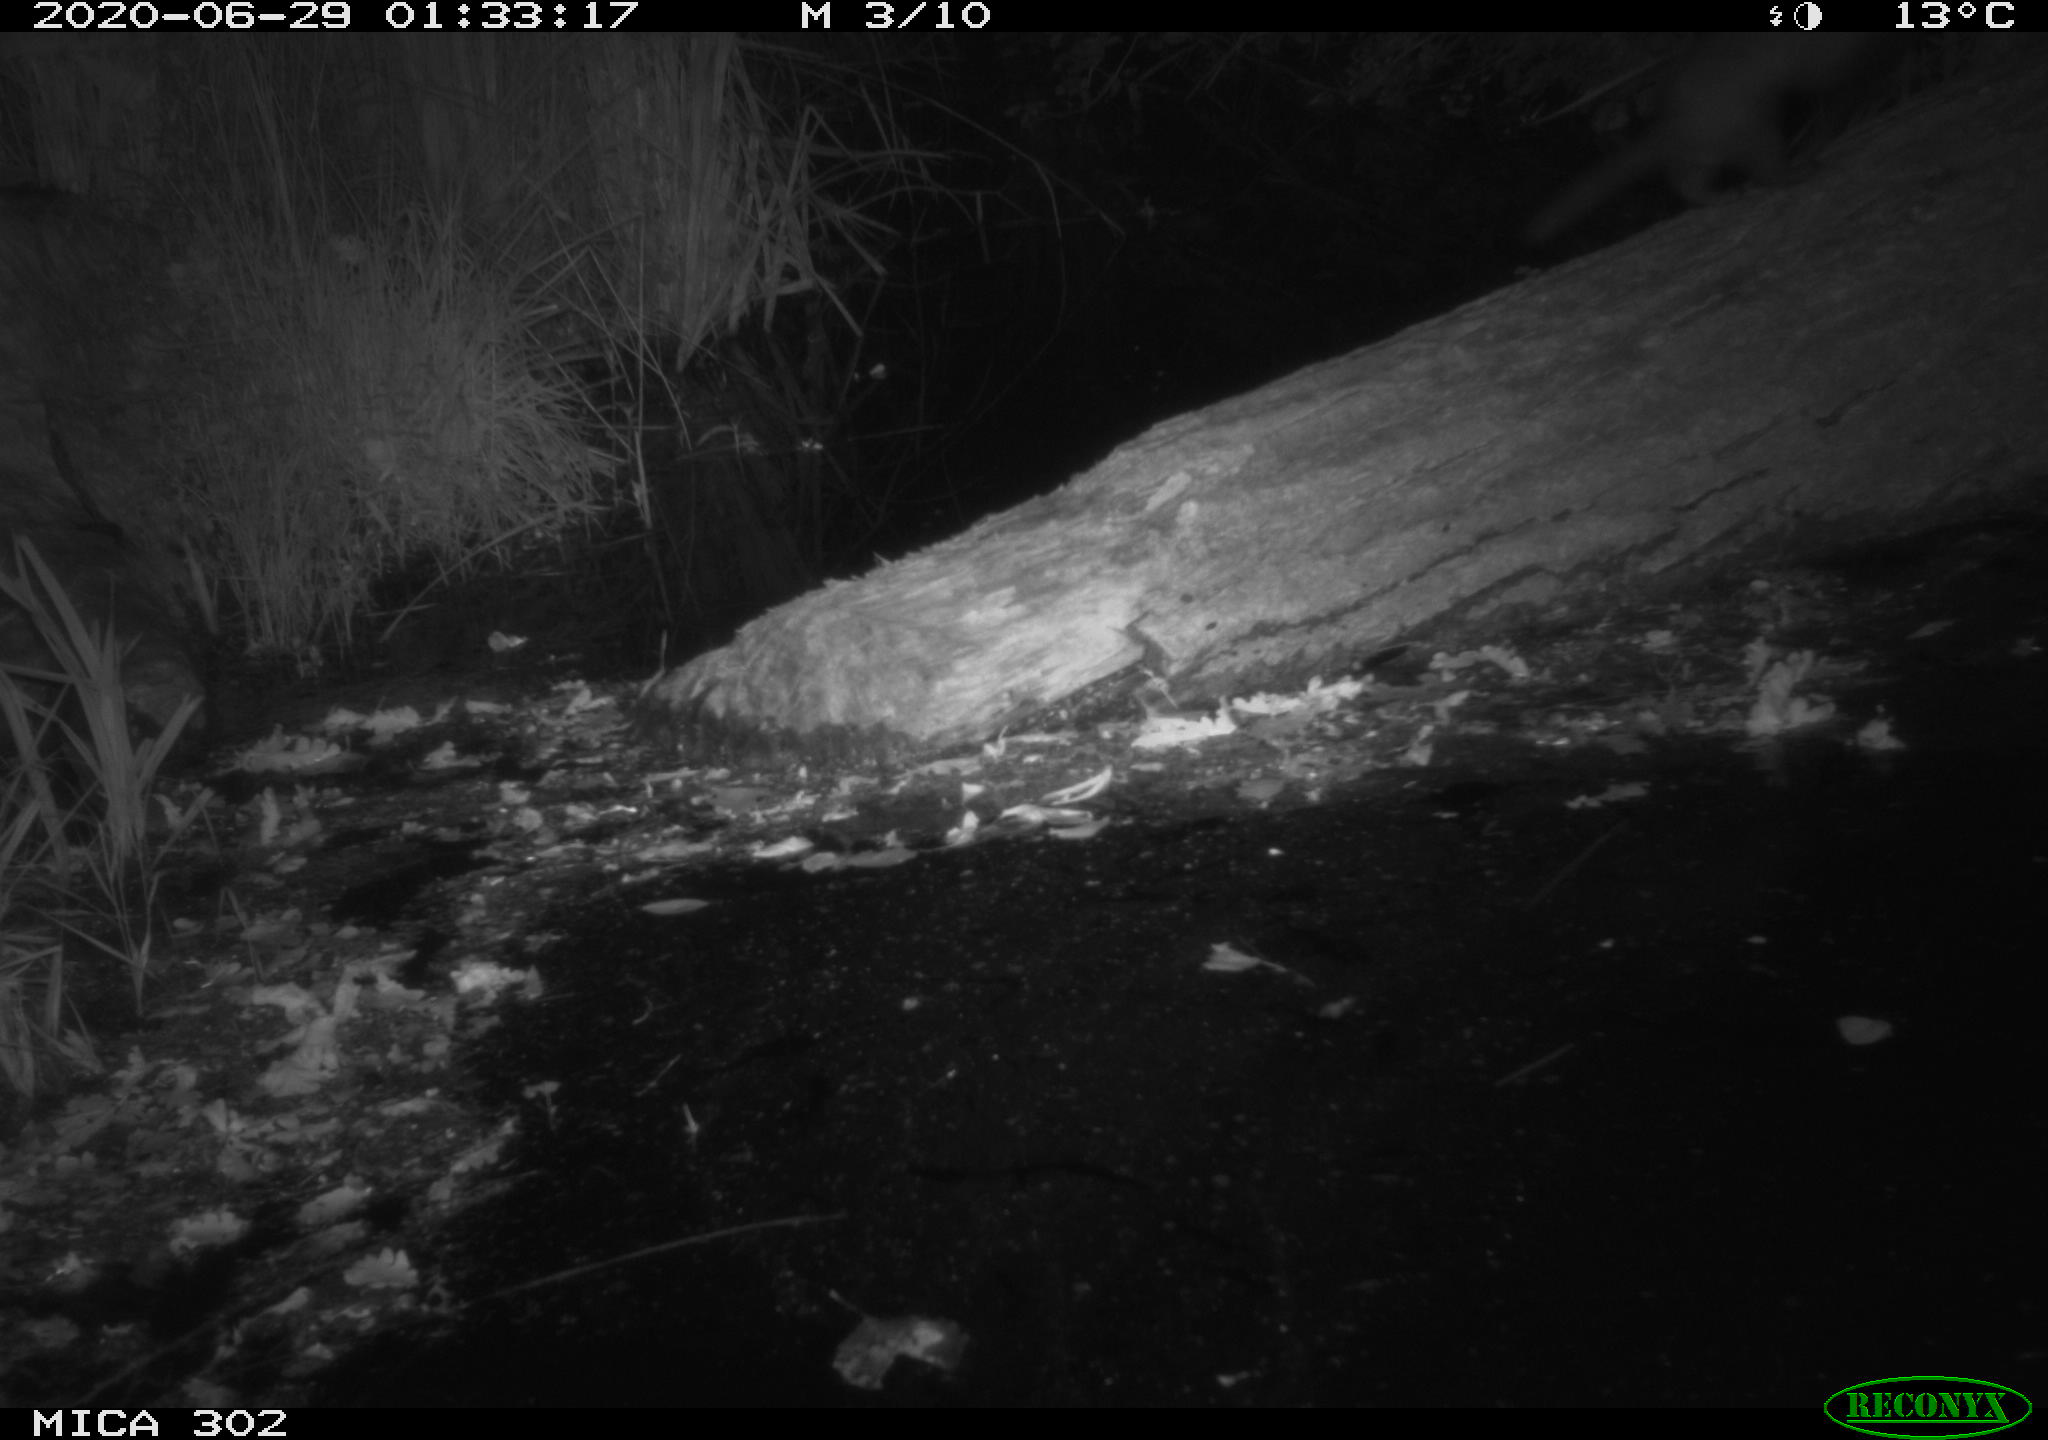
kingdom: Animalia
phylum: Chordata
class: Mammalia
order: Carnivora
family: Mustelidae
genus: Mustela
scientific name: Mustela putorius
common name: European polecat
